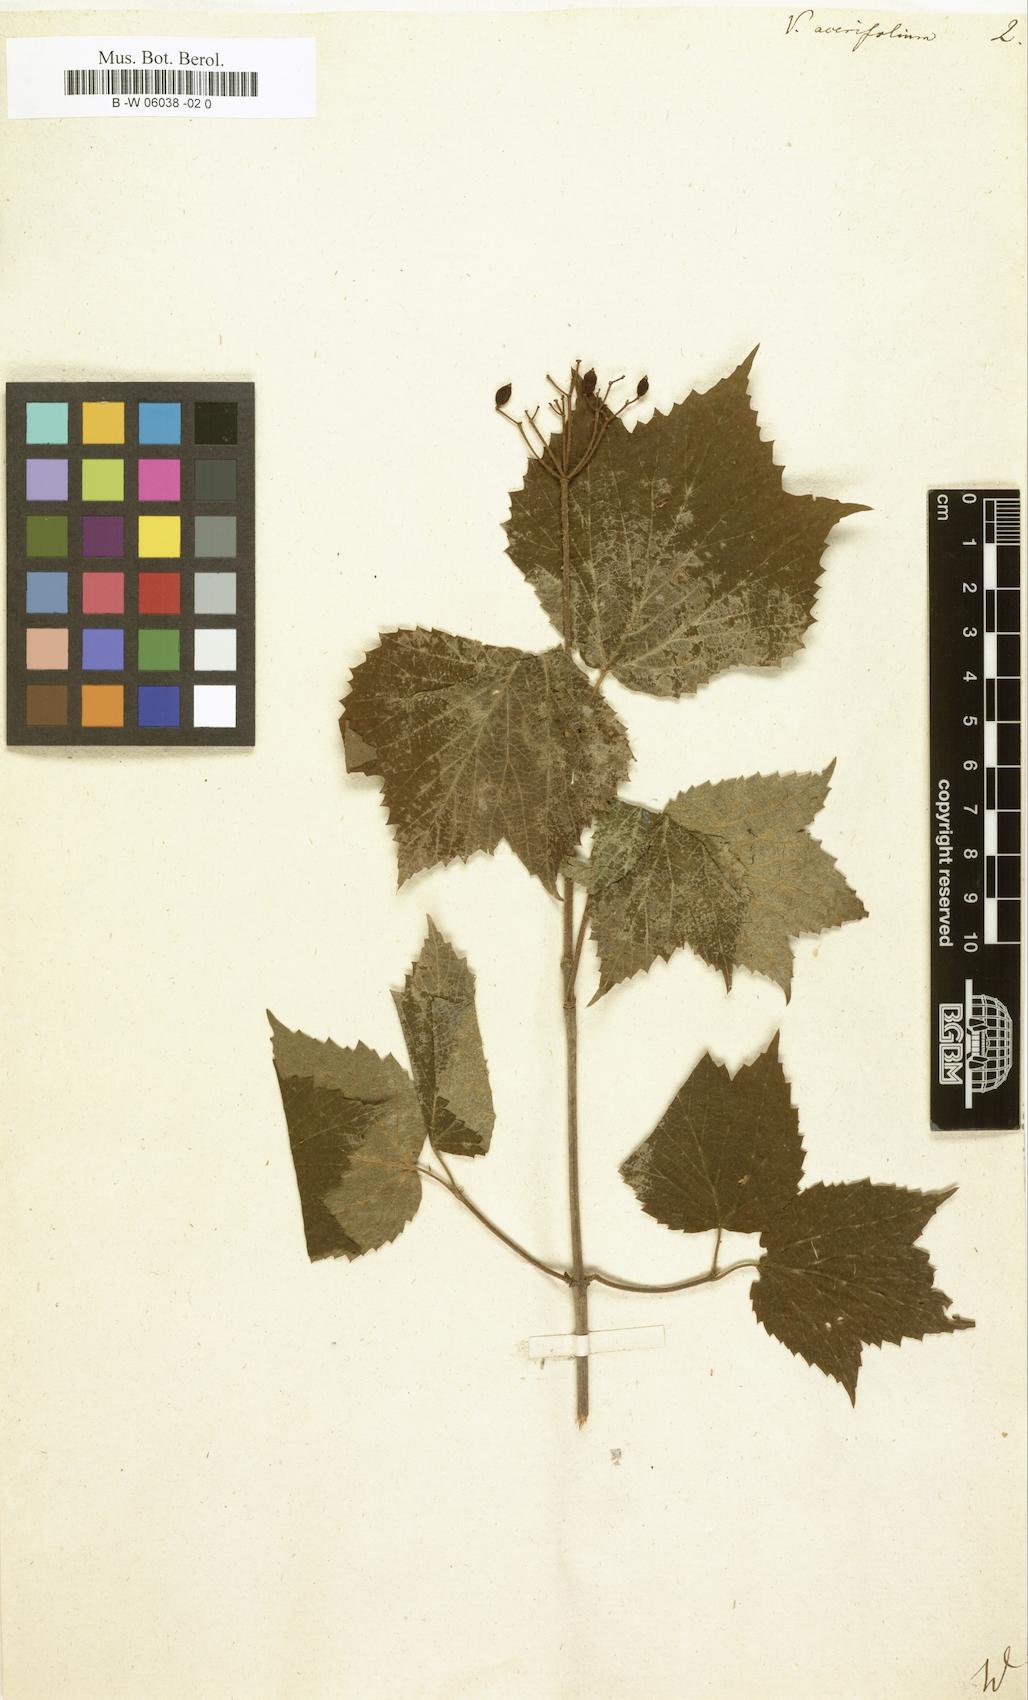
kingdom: Plantae
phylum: Tracheophyta
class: Magnoliopsida
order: Dipsacales
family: Viburnaceae
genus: Viburnum
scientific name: Viburnum acerifolium
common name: Dockmackie
